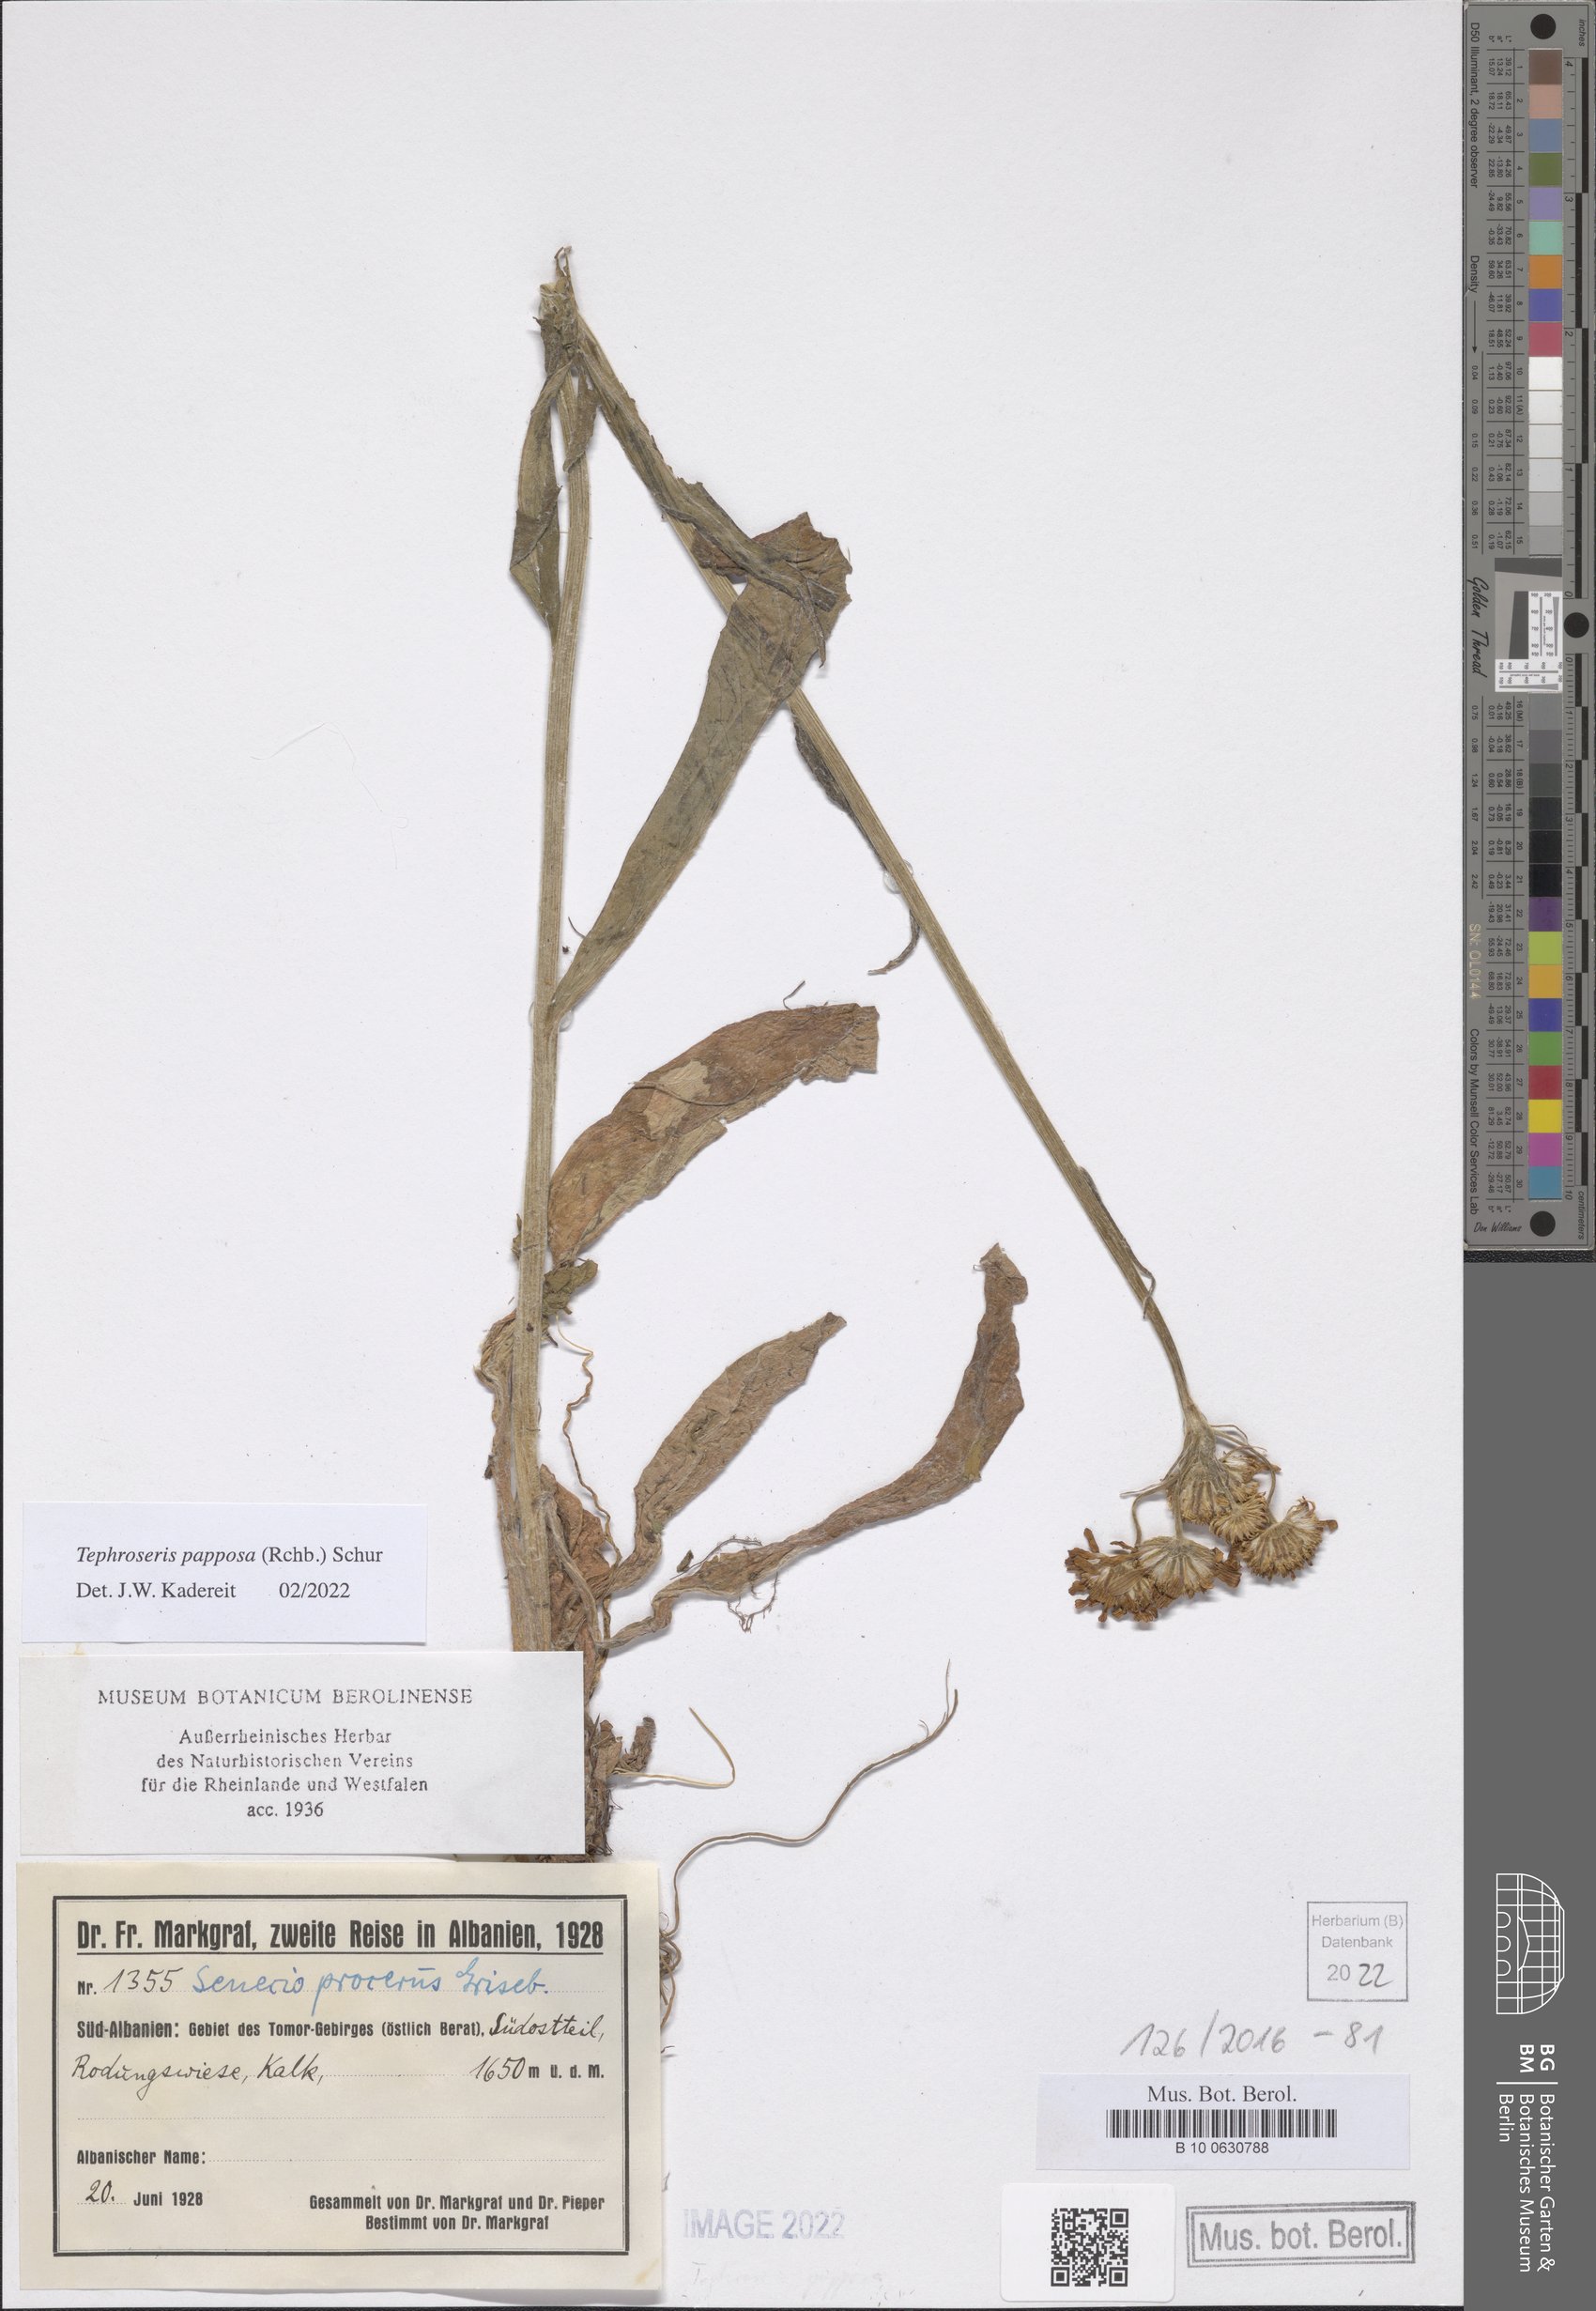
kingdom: Plantae
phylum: Tracheophyta
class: Magnoliopsida
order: Asterales
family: Asteraceae
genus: Tephroseris
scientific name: Tephroseris papposa
